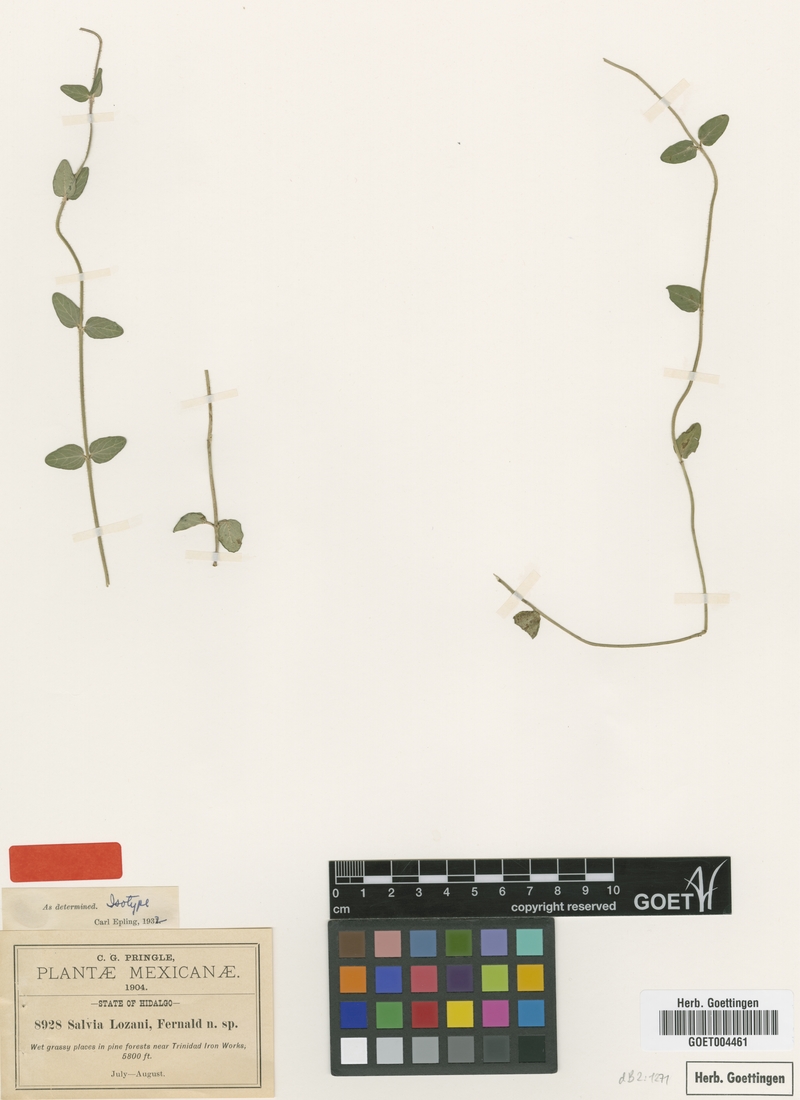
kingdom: Plantae
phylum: Tracheophyta
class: Magnoliopsida
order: Lamiales
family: Lamiaceae
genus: Salvia
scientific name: Salvia lozanii
